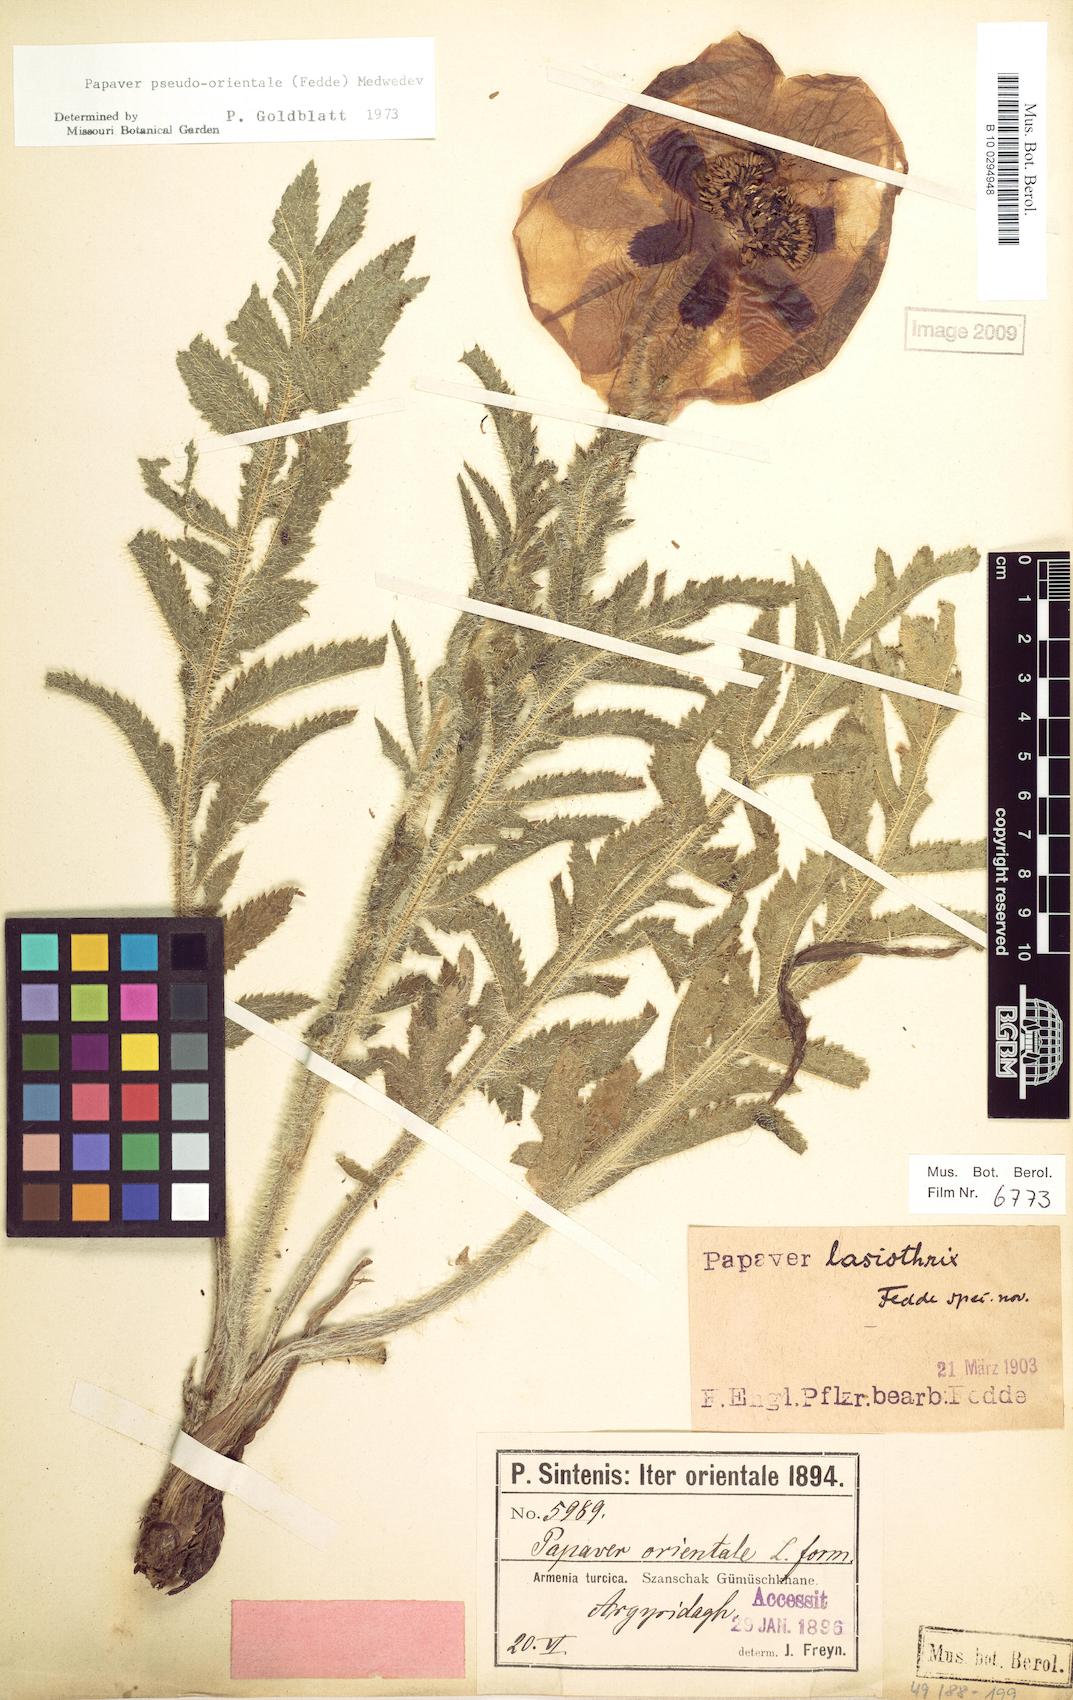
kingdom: Plantae
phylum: Tracheophyta
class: Magnoliopsida
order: Ranunculales
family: Papaveraceae
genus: Papaver
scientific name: Papaver setiferum
